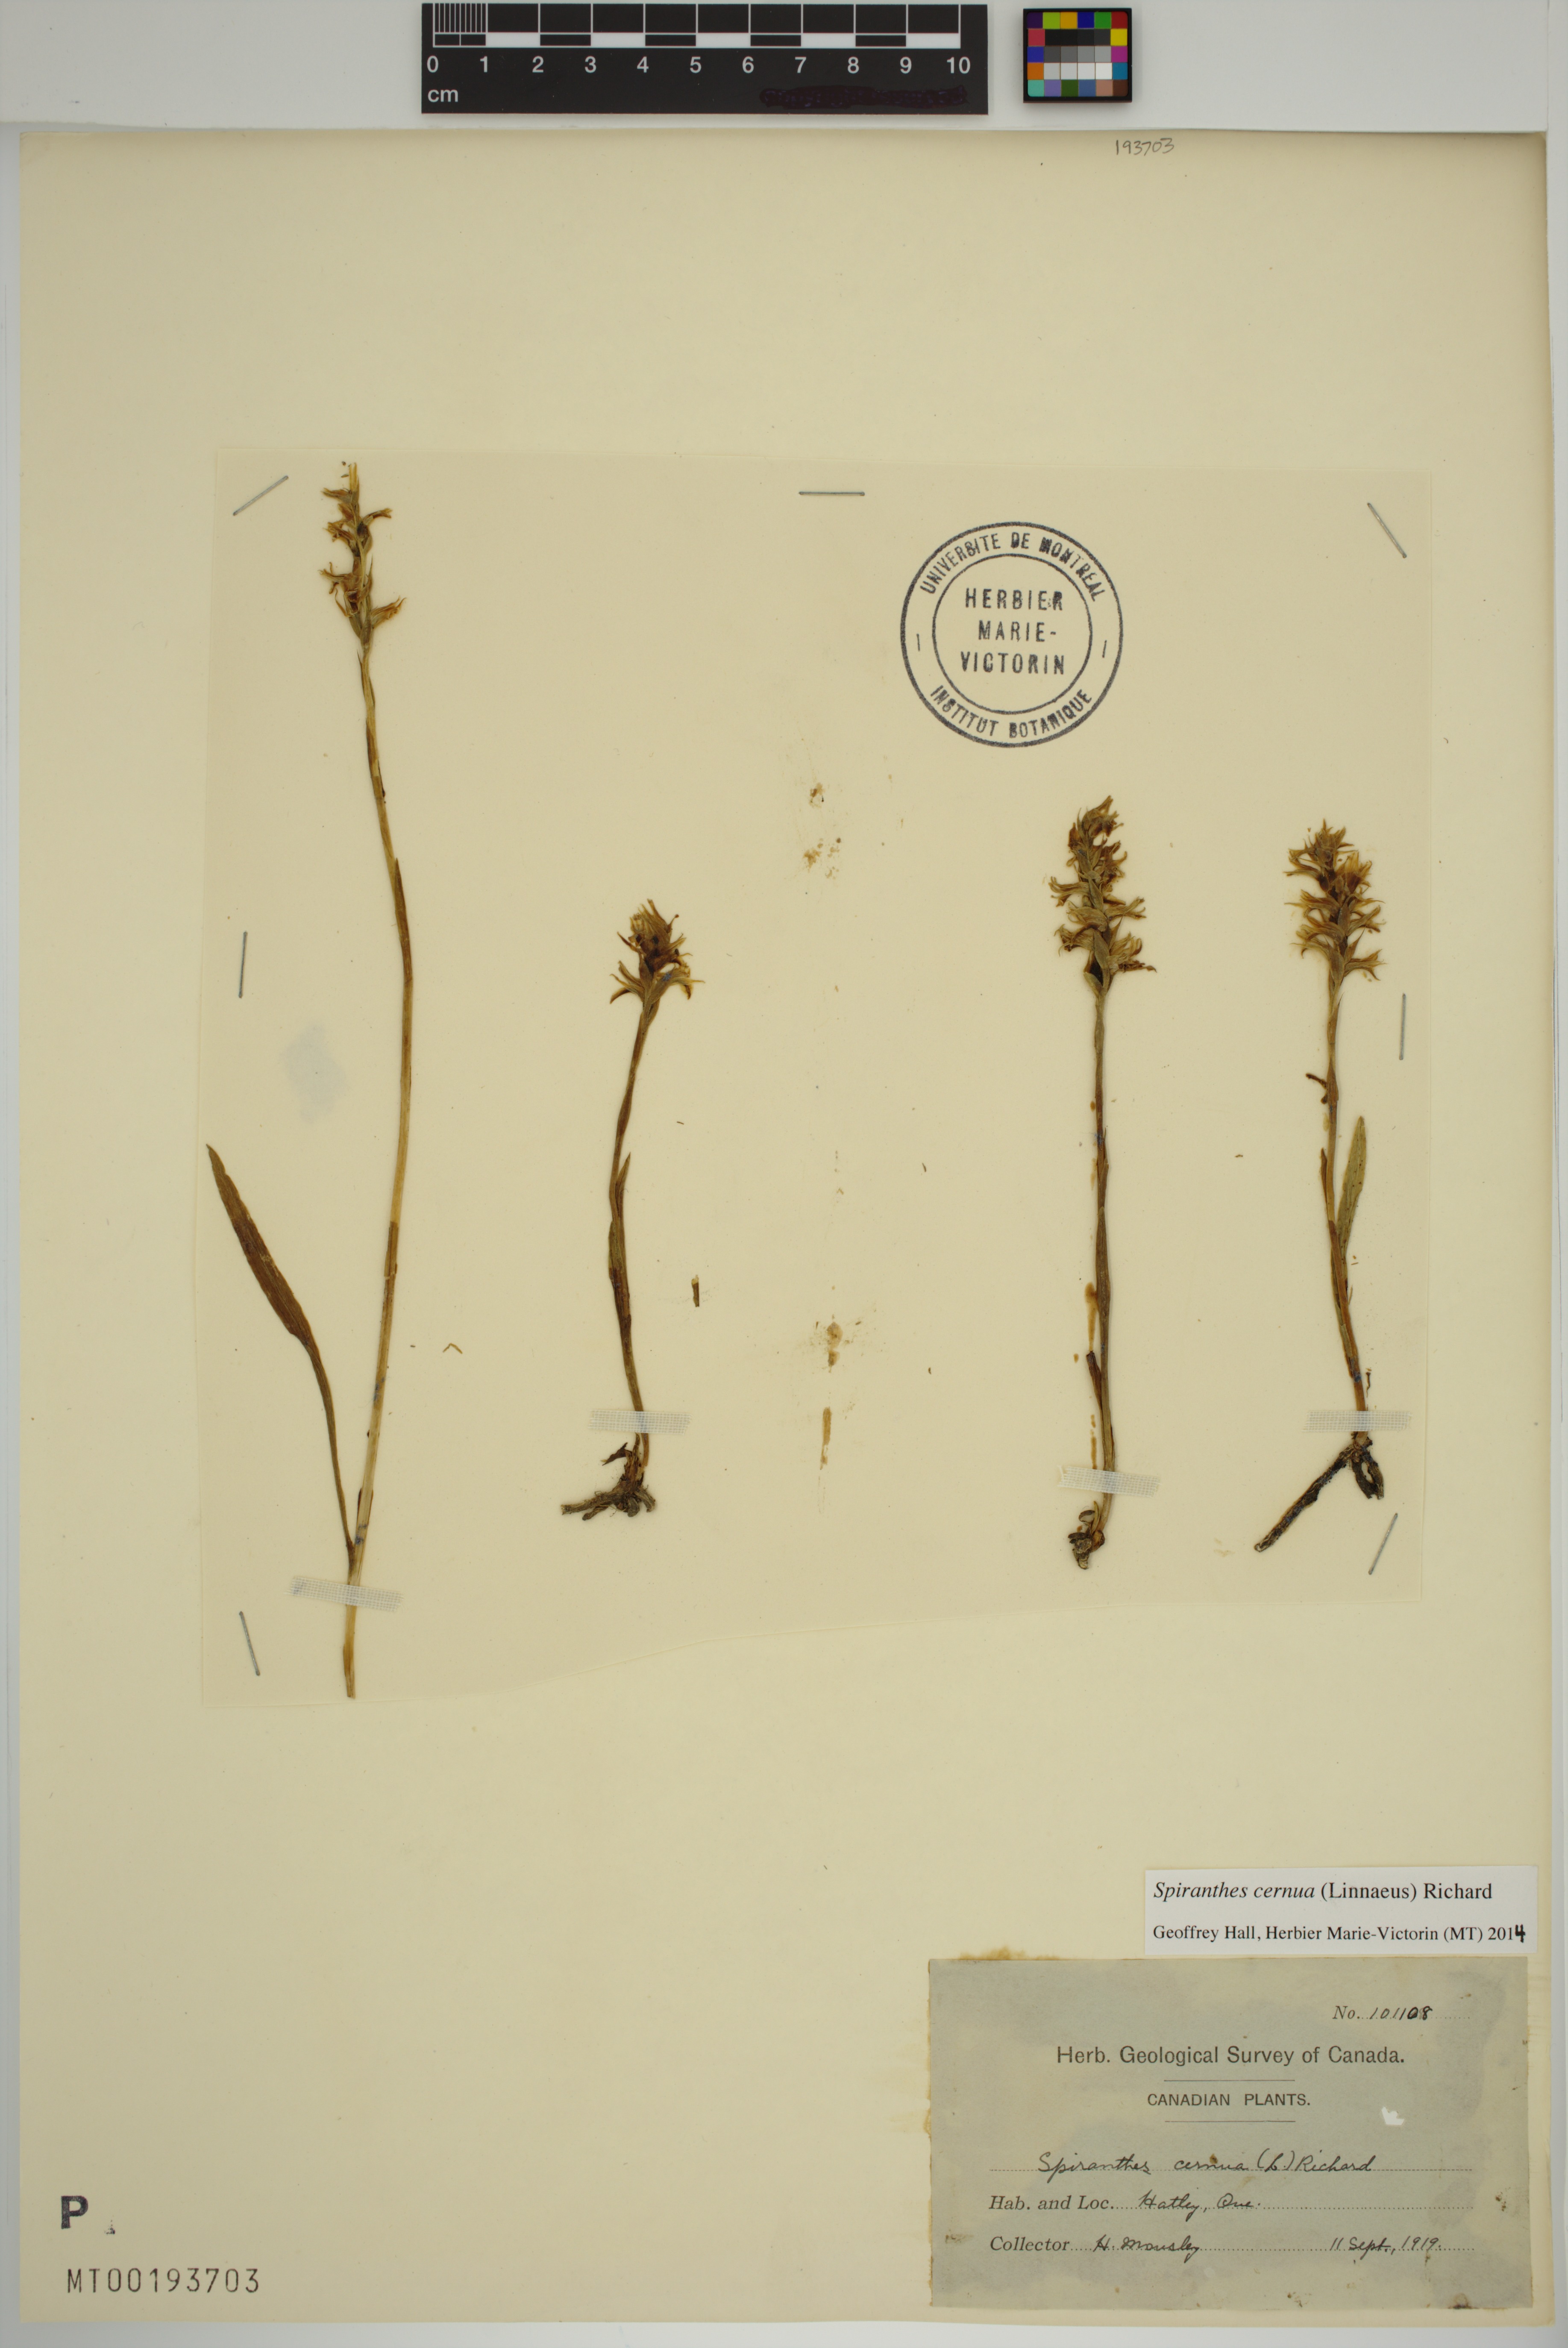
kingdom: Plantae
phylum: Tracheophyta
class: Liliopsida
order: Asparagales
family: Orchidaceae
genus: Spiranthes
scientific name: Spiranthes cernua
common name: Dropping ladies'-tresses
